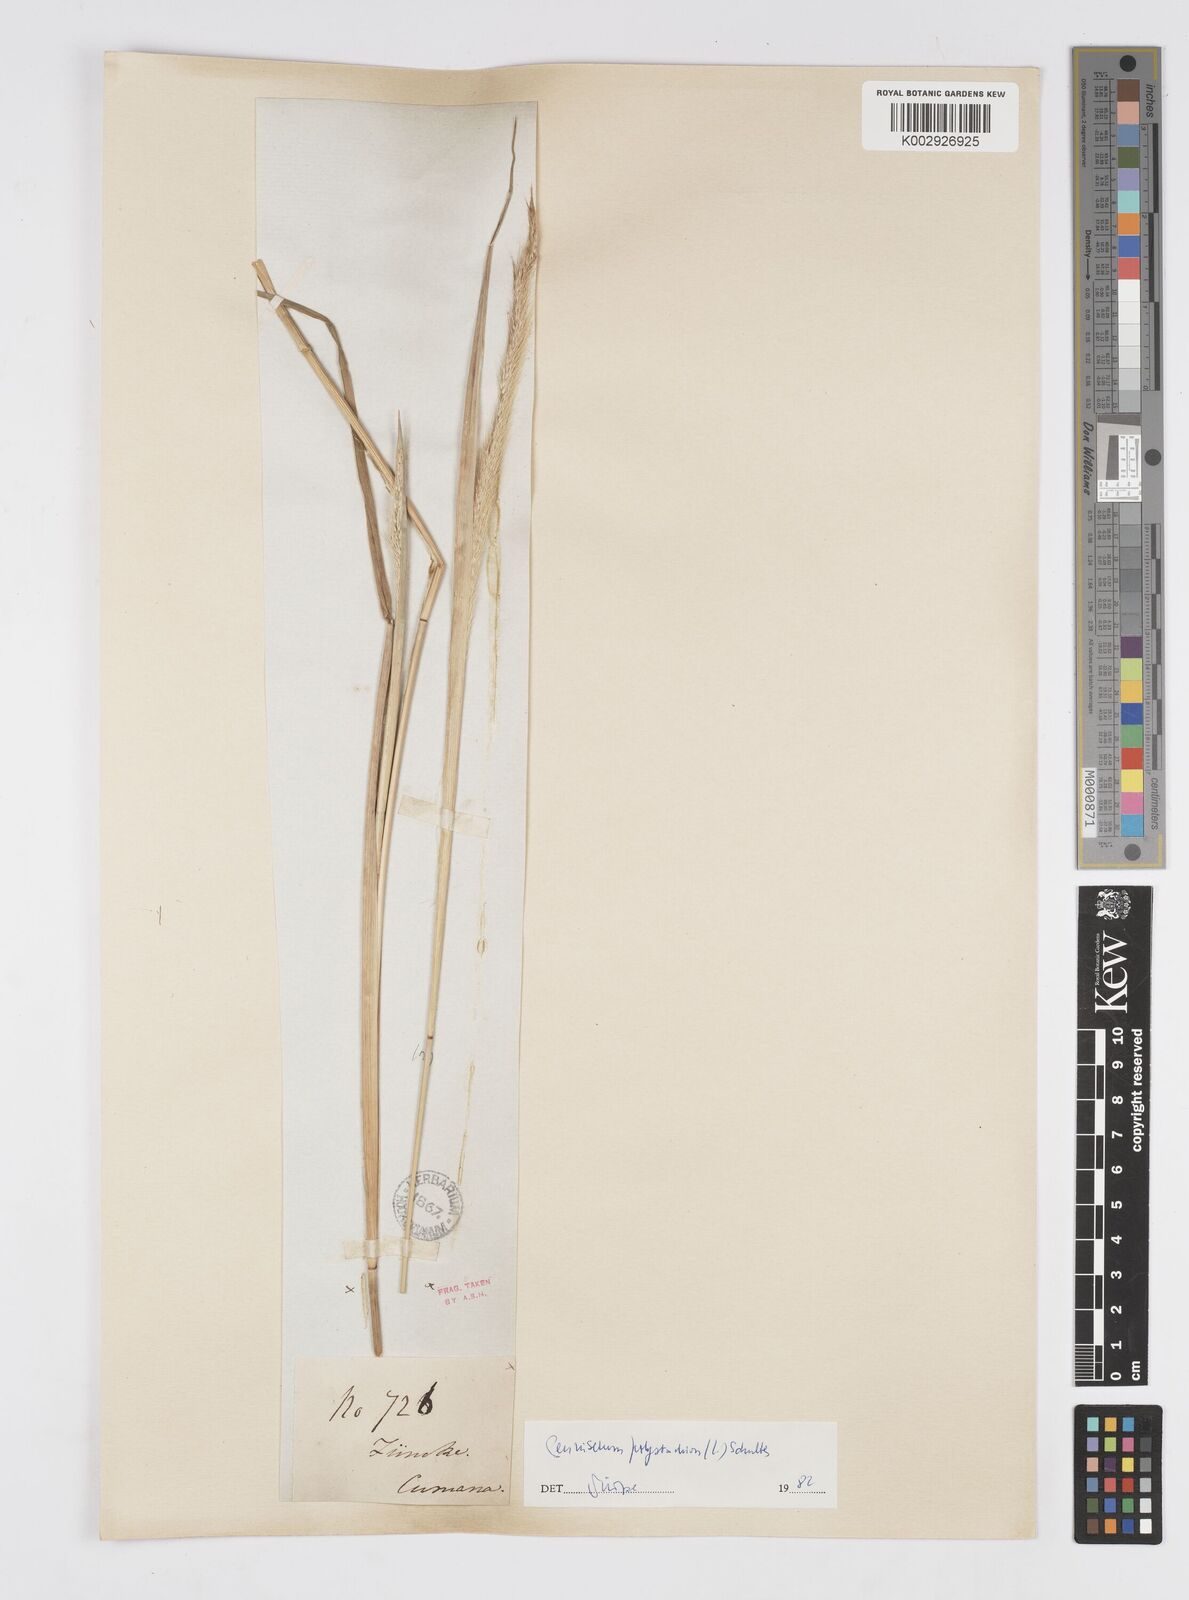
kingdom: Plantae
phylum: Tracheophyta
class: Liliopsida
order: Poales
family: Poaceae
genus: Setaria
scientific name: Setaria parviflora
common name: Knotroot bristle-grass
